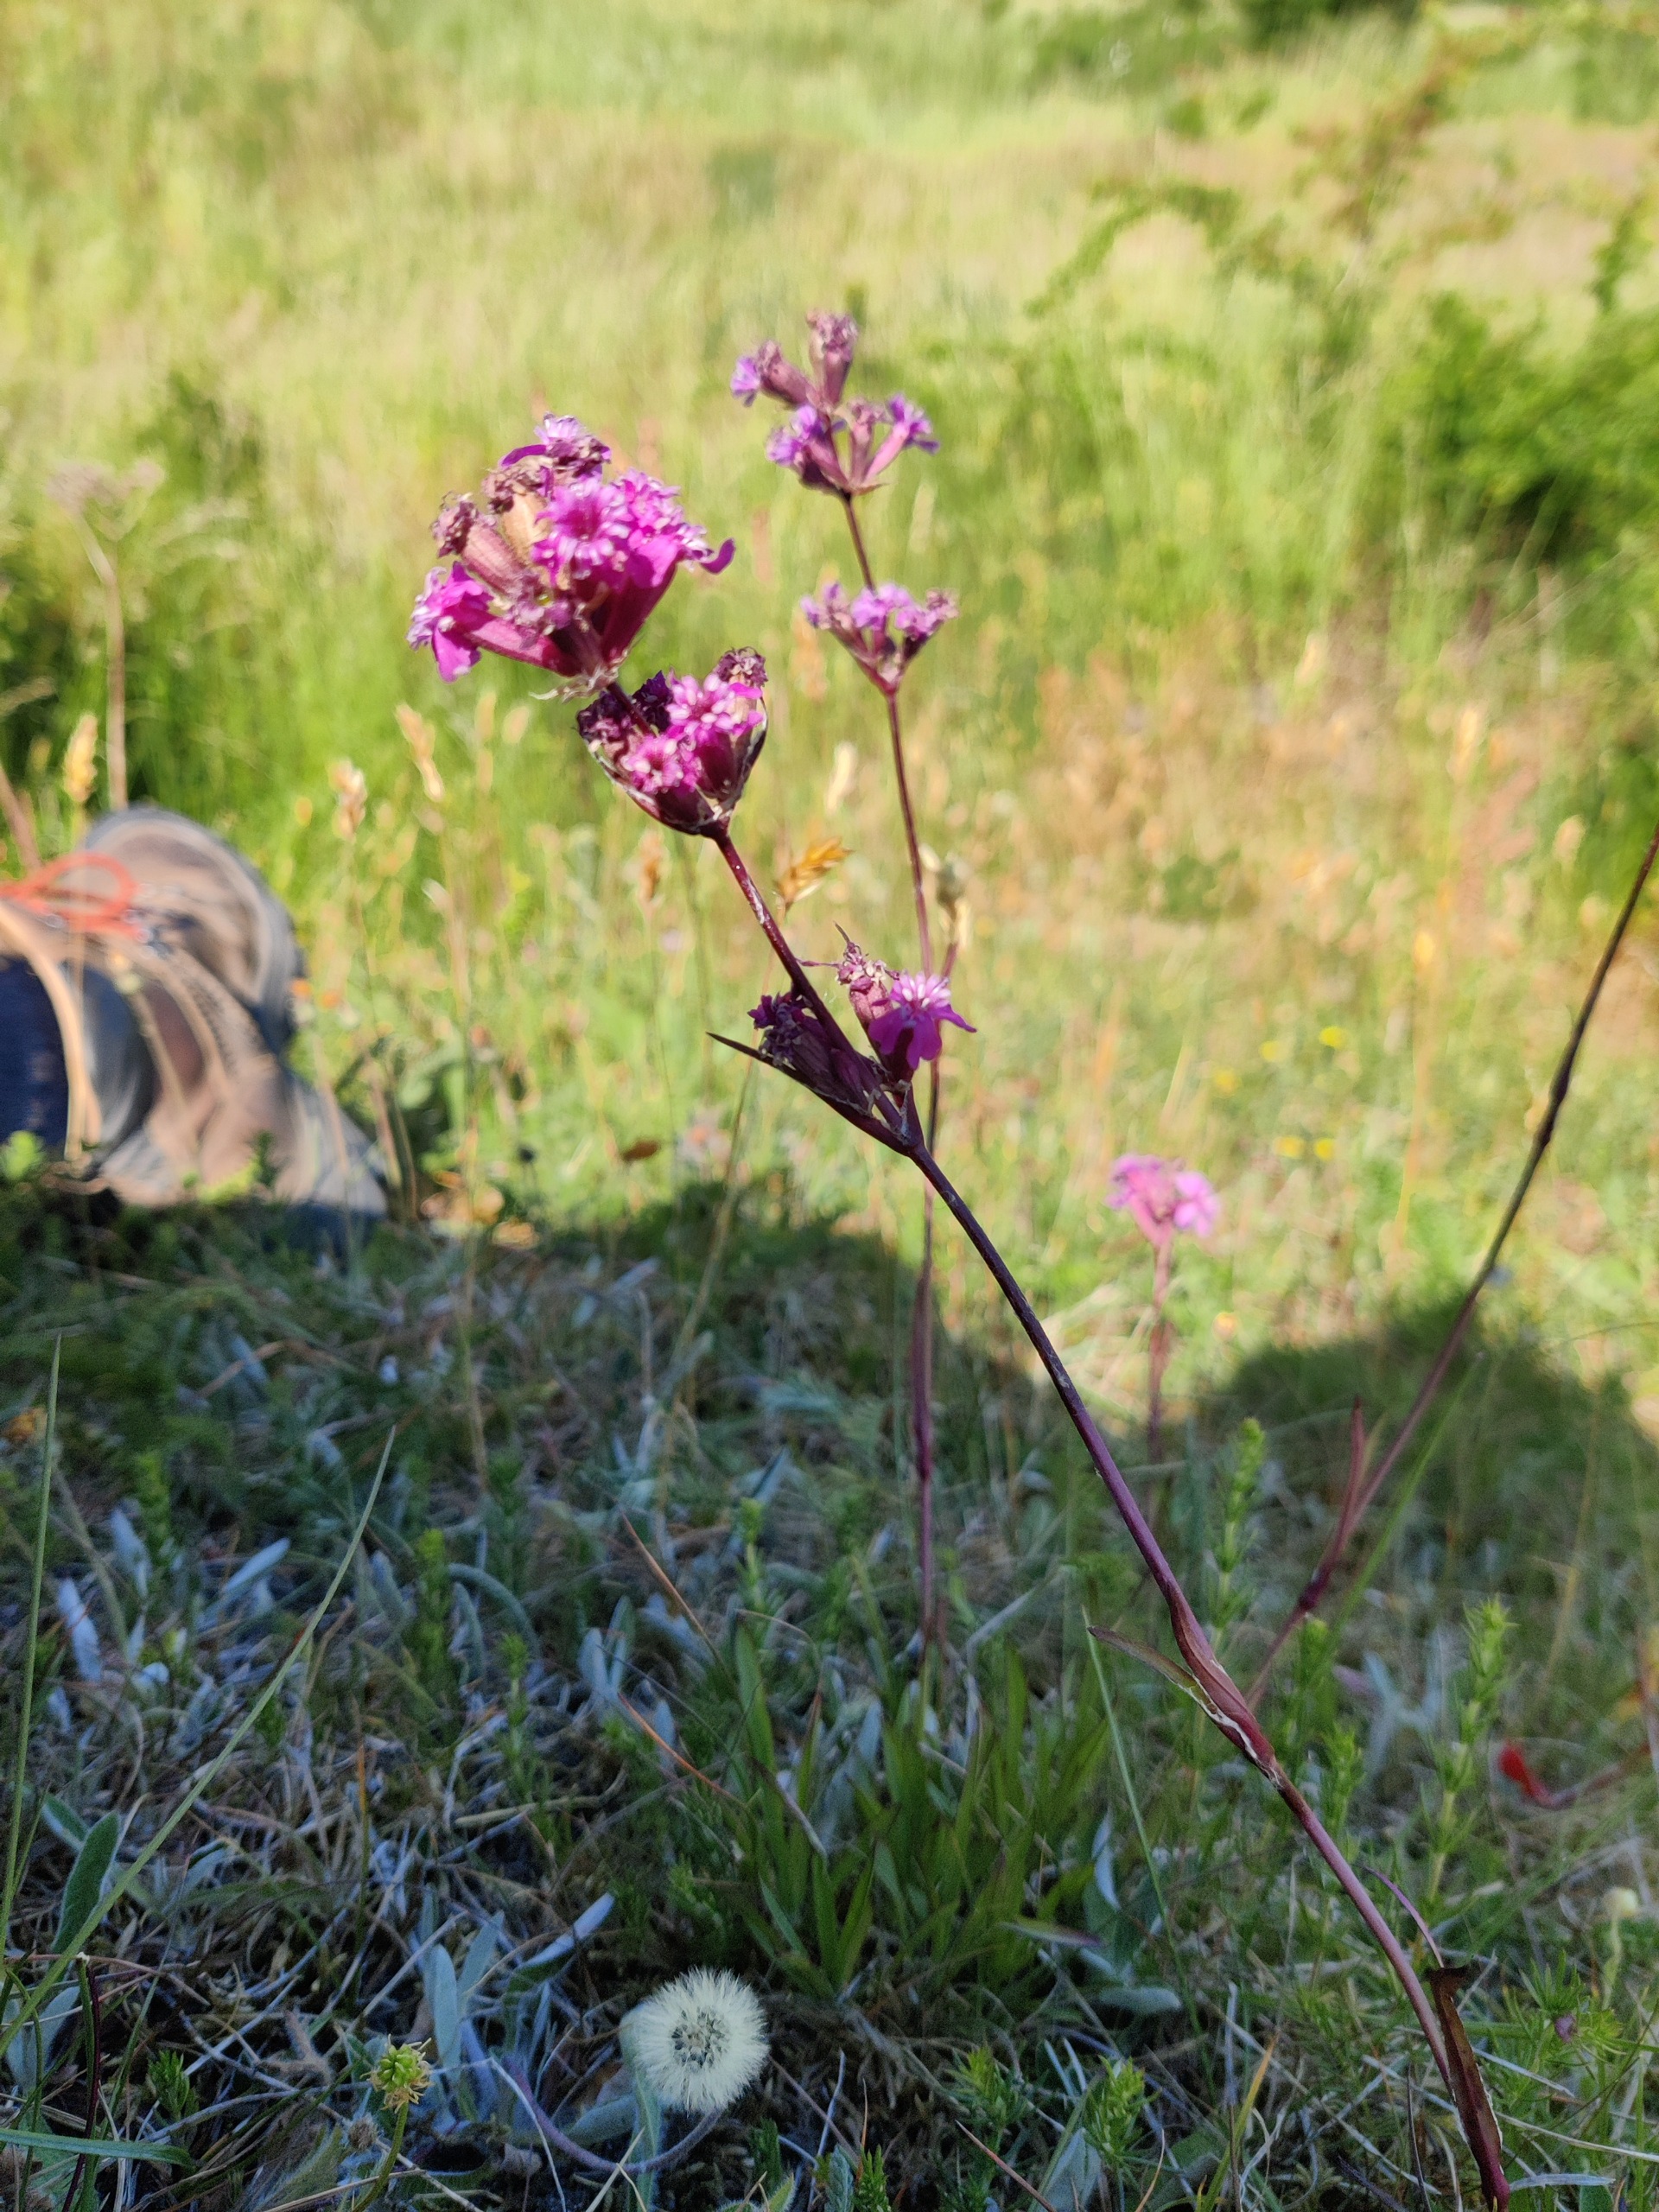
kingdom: Plantae
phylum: Tracheophyta
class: Magnoliopsida
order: Caryophyllales
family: Caryophyllaceae
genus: Viscaria
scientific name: Viscaria vulgaris
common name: Tjærenellike
